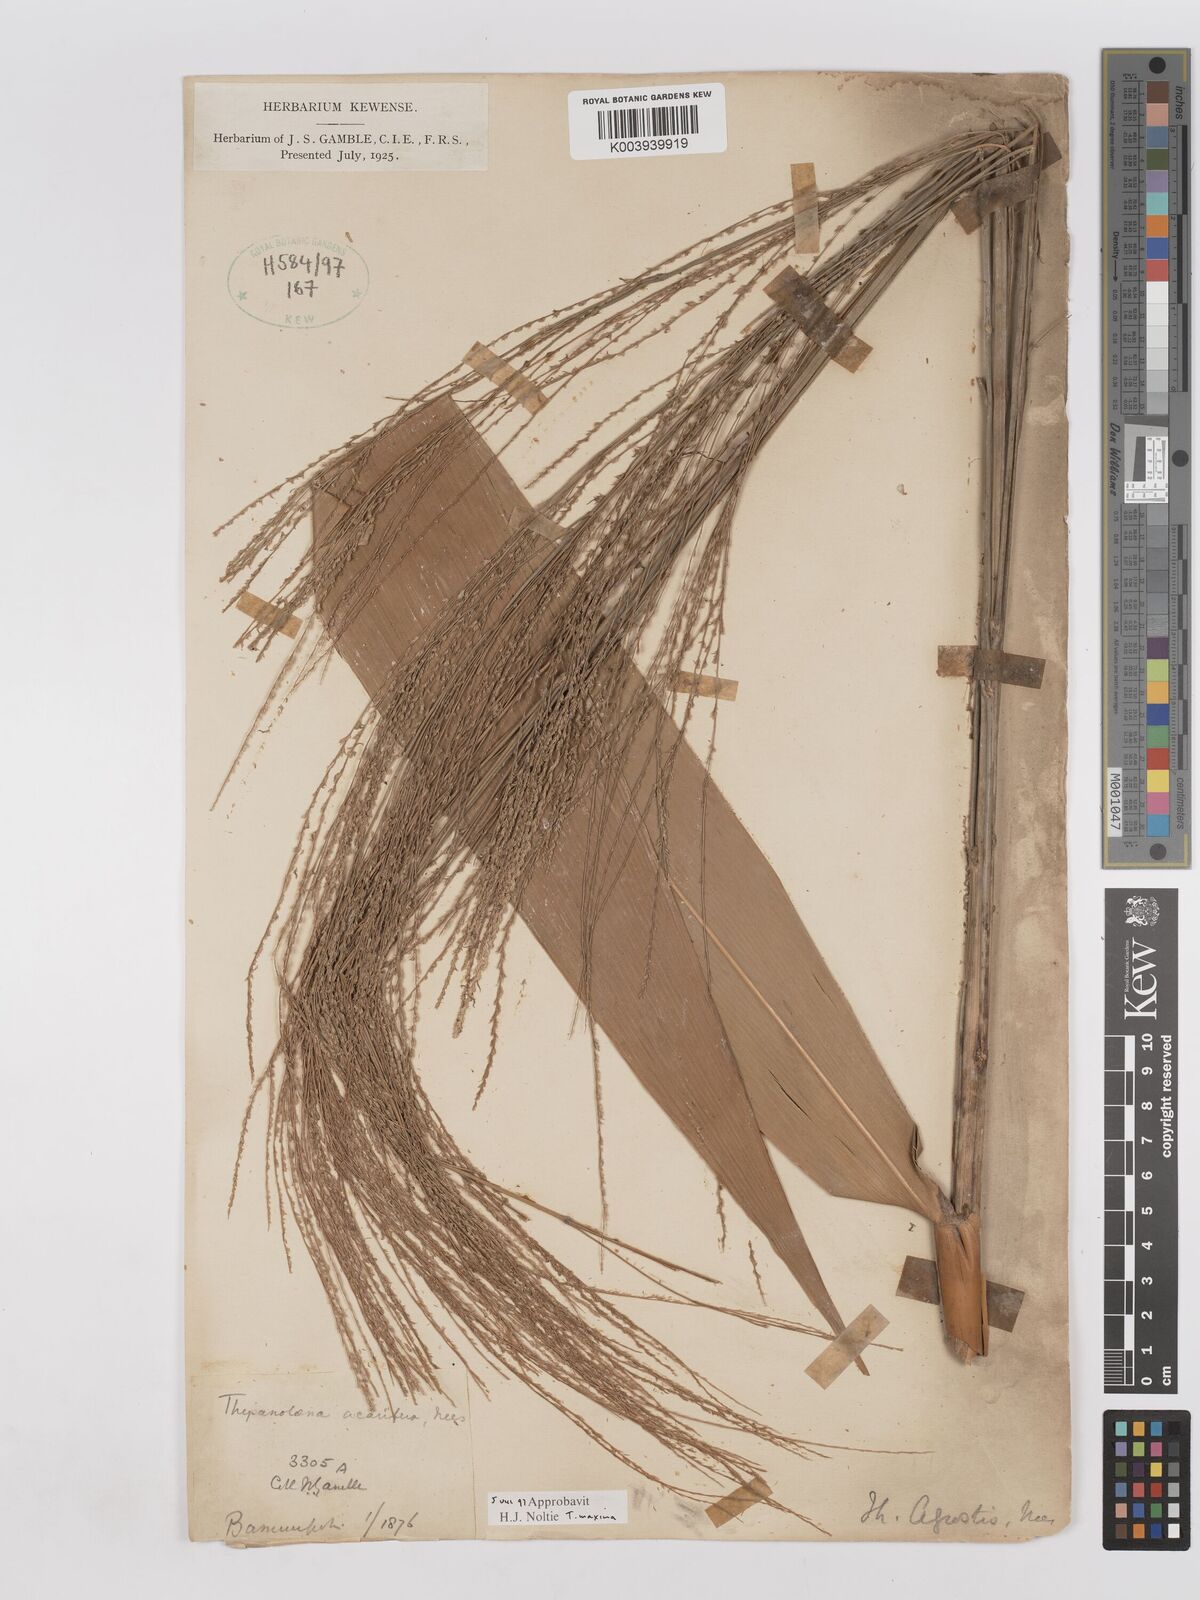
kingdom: Plantae
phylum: Tracheophyta
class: Liliopsida
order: Poales
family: Poaceae
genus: Thysanolaena
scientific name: Thysanolaena latifolia
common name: Tiger grass
